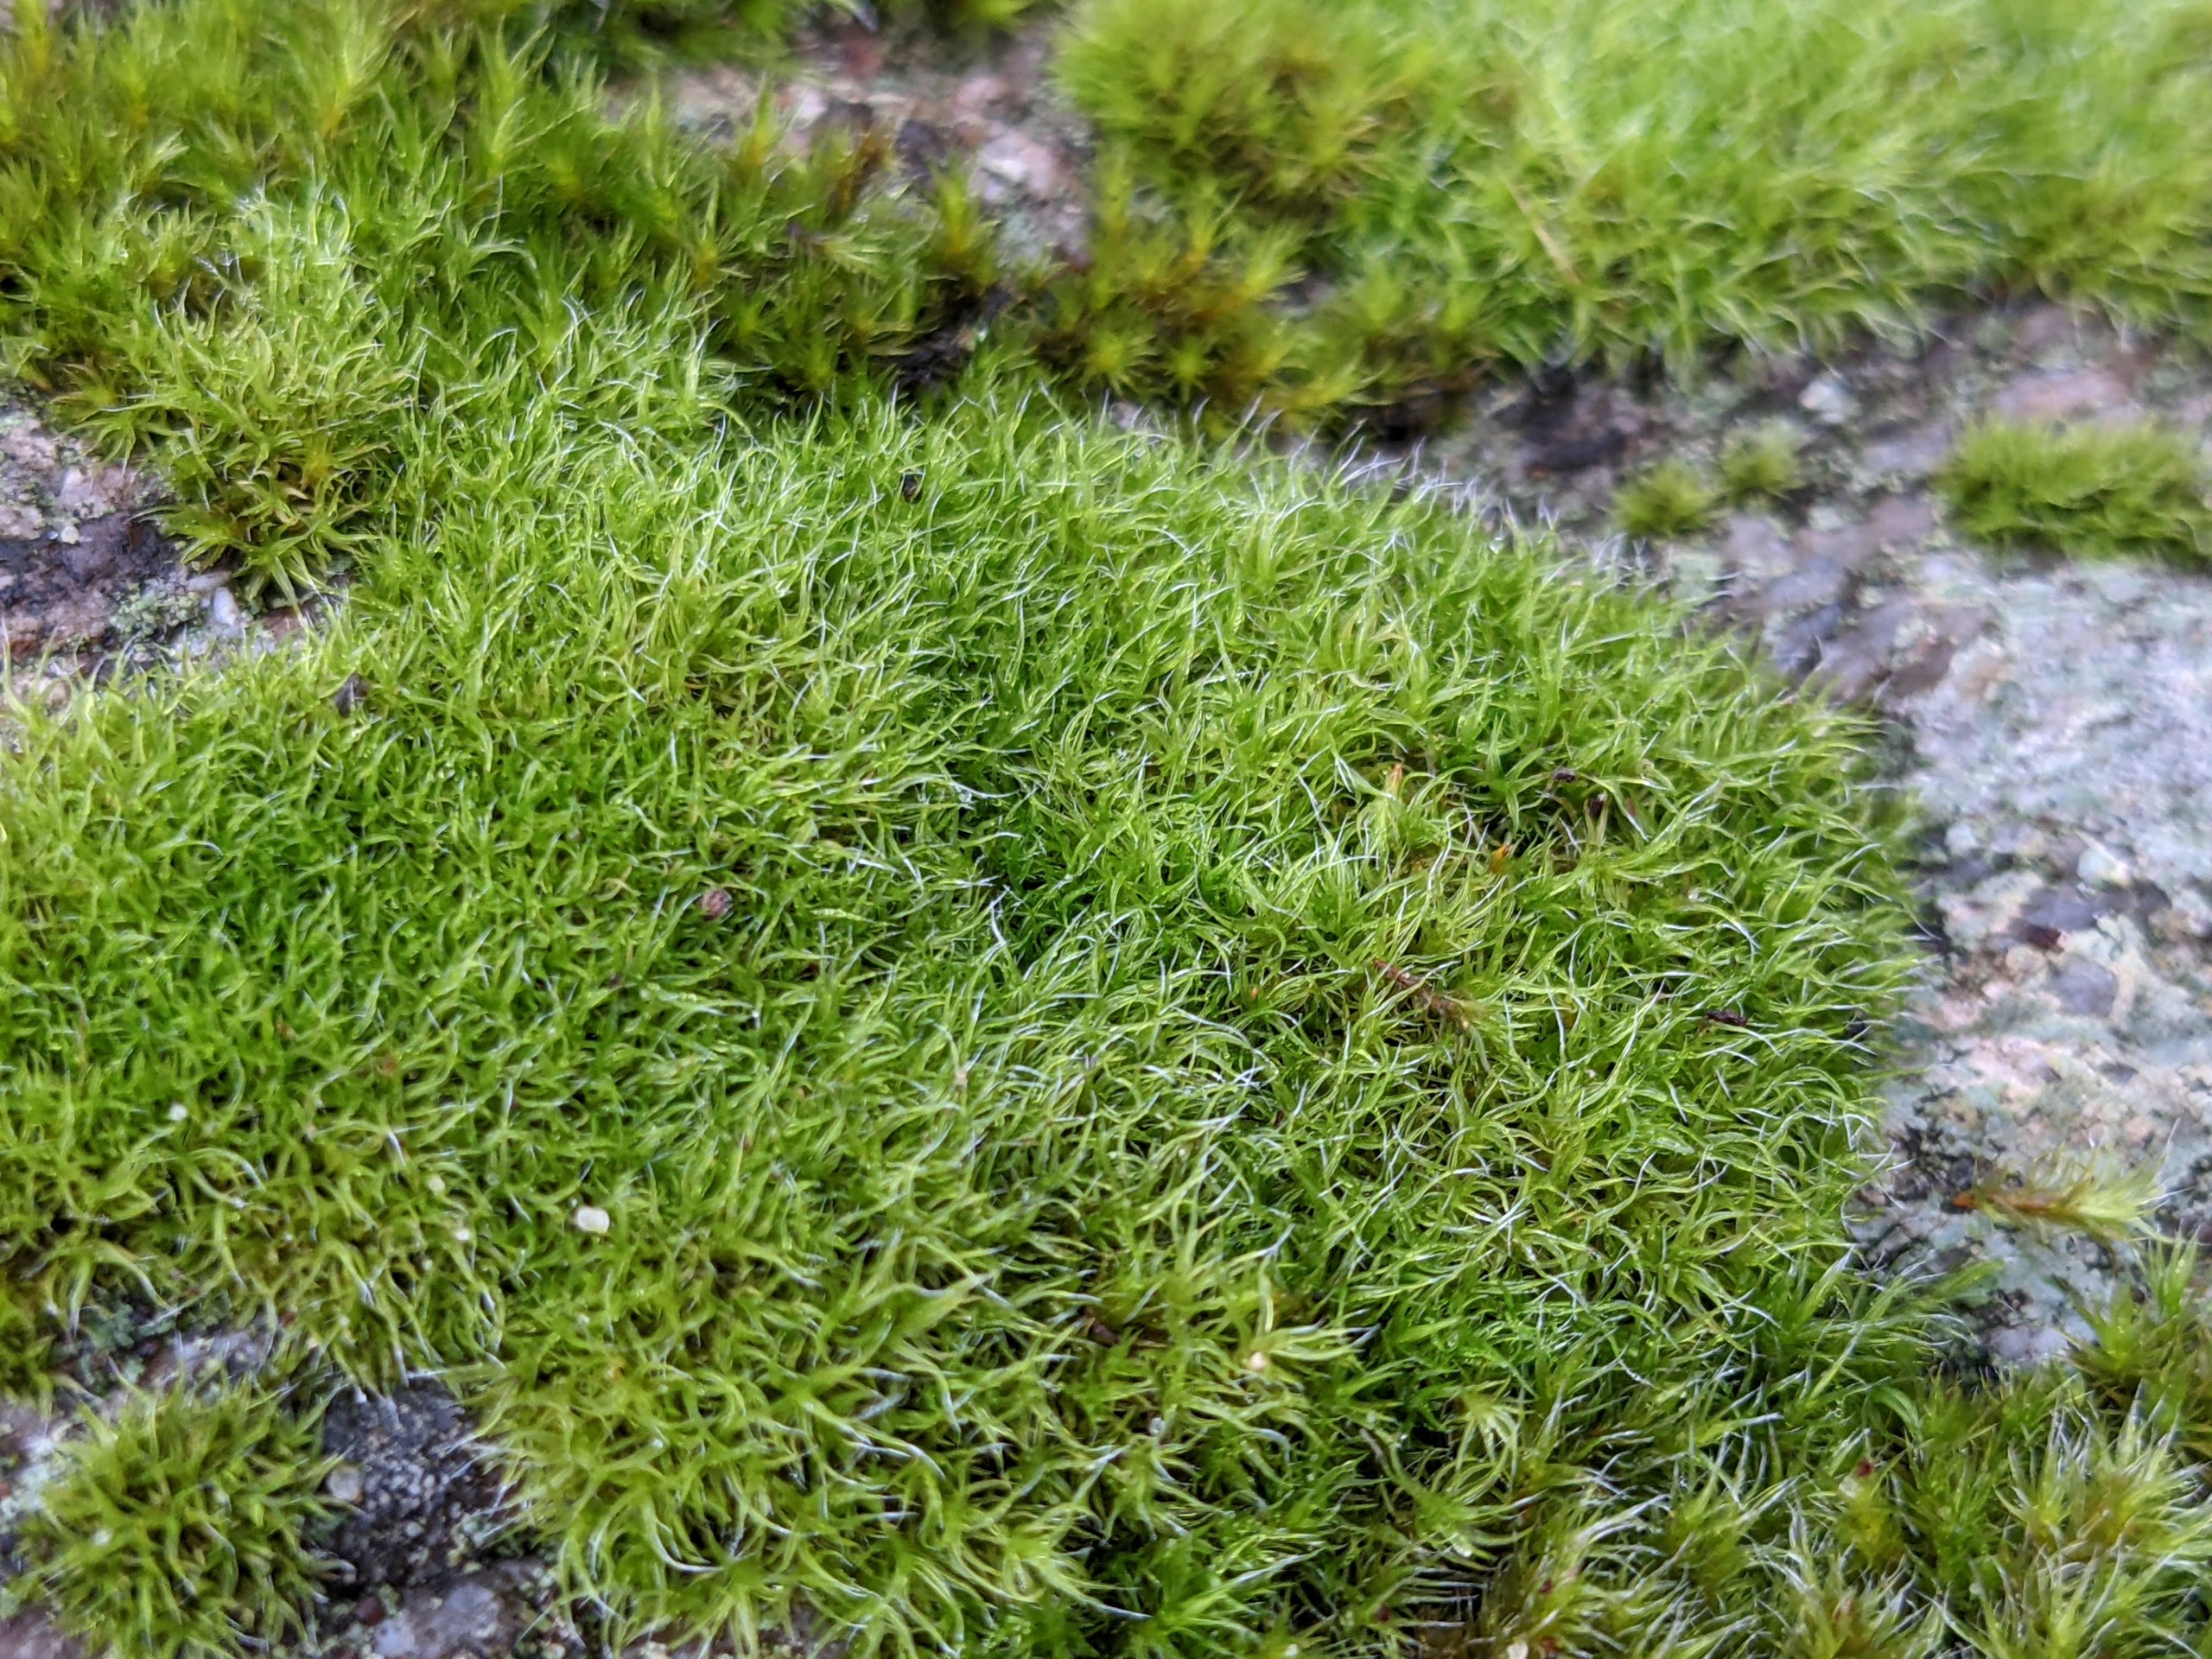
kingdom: Plantae
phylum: Bryophyta
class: Bryopsida
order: Grimmiales
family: Grimmiaceae
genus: Grimmia
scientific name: Grimmia trichophylla
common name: Glathåret gråmos
